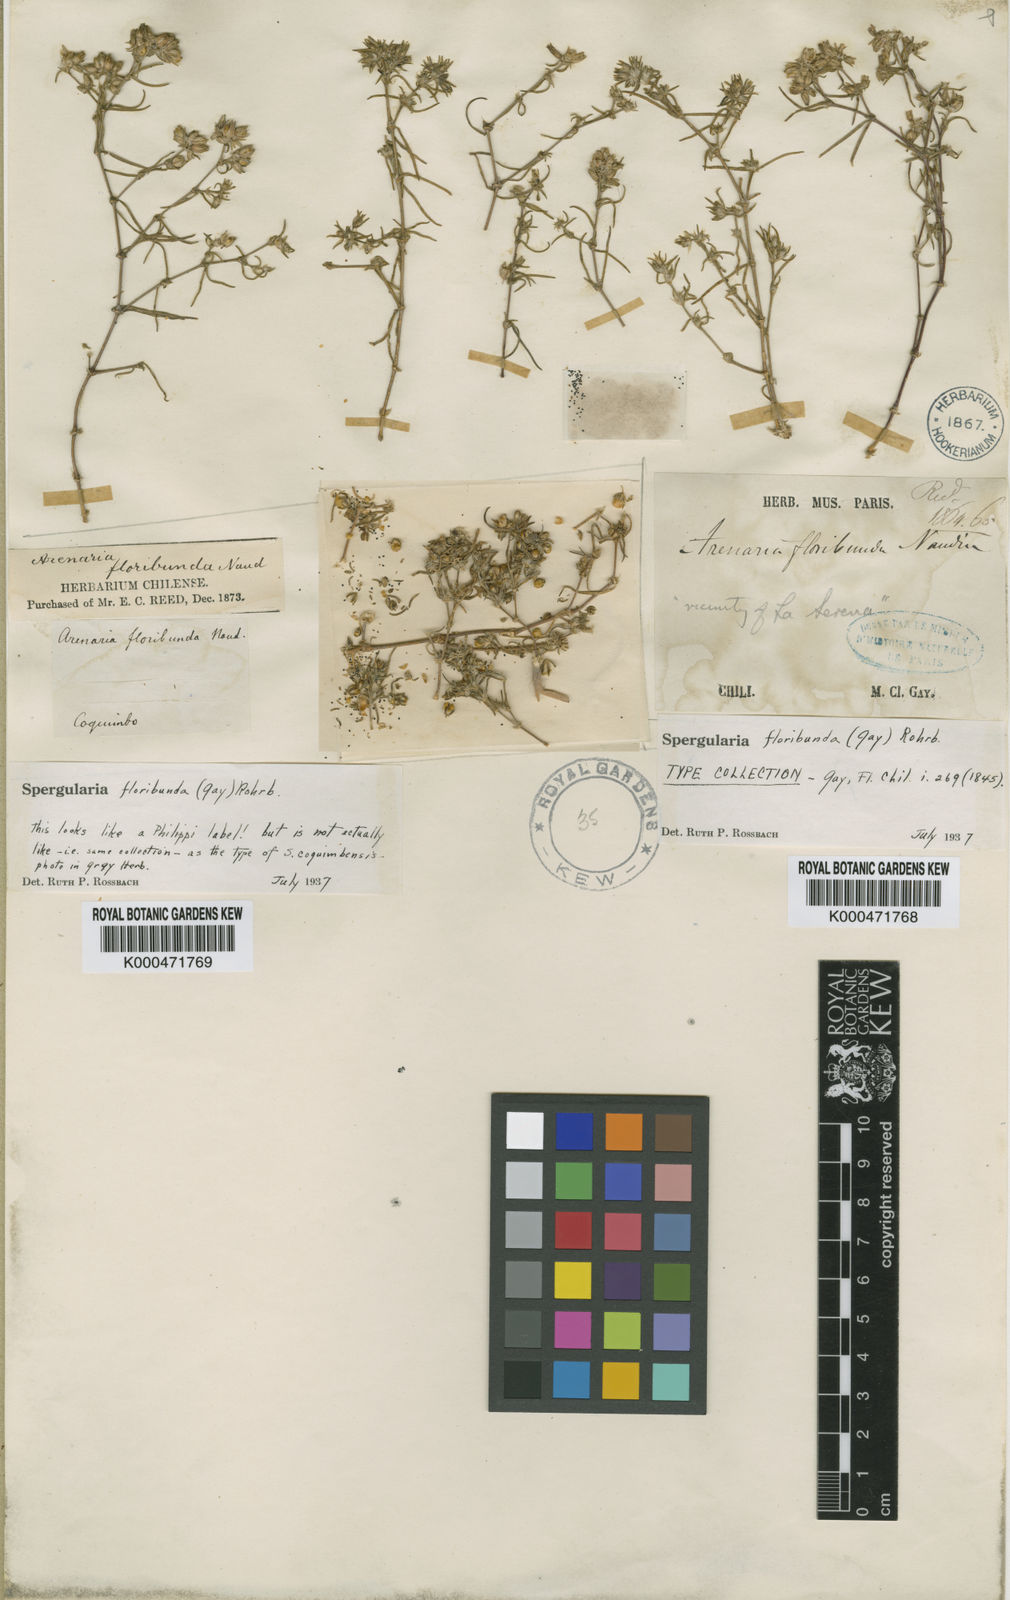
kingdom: Plantae
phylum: Tracheophyta
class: Magnoliopsida
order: Caryophyllales
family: Caryophyllaceae
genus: Spergularia
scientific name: Spergularia floribunda
